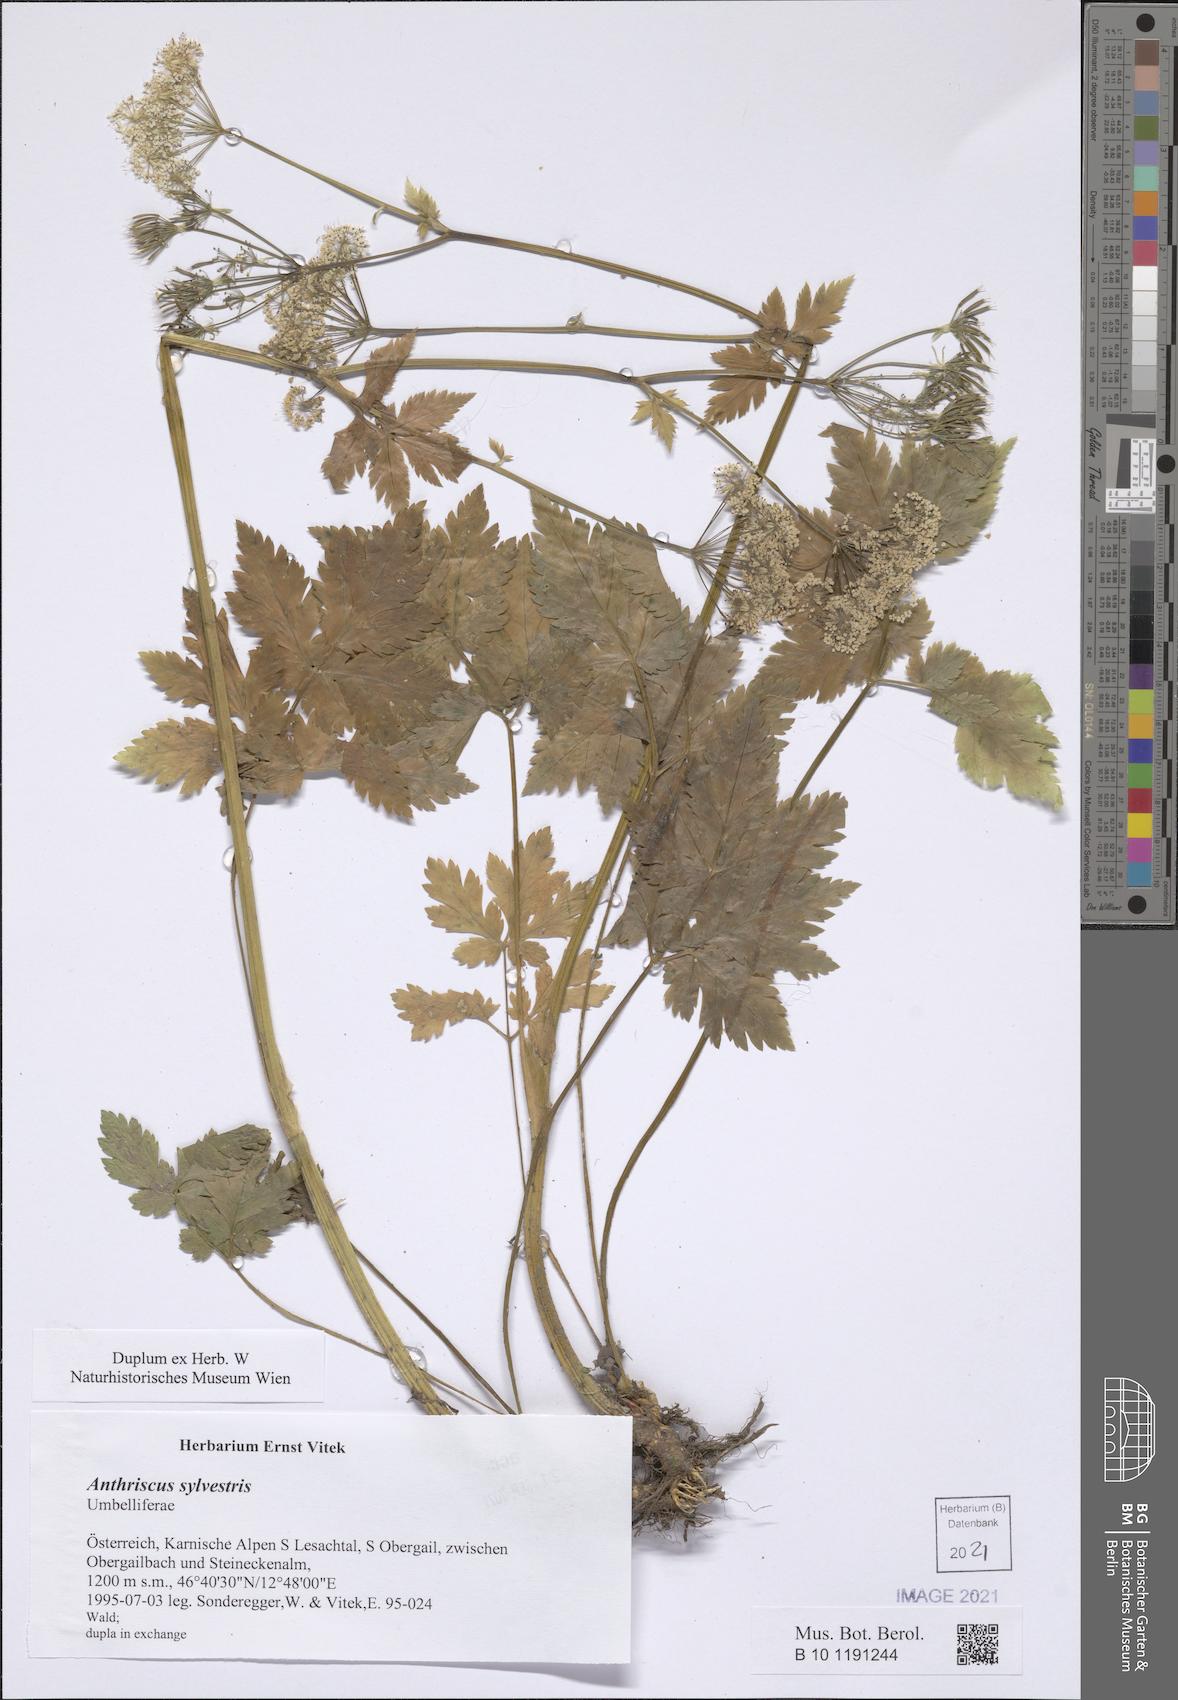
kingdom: Plantae
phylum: Tracheophyta
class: Magnoliopsida
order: Apiales
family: Apiaceae
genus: Anthriscus
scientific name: Anthriscus sylvestris
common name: Cow parsley
